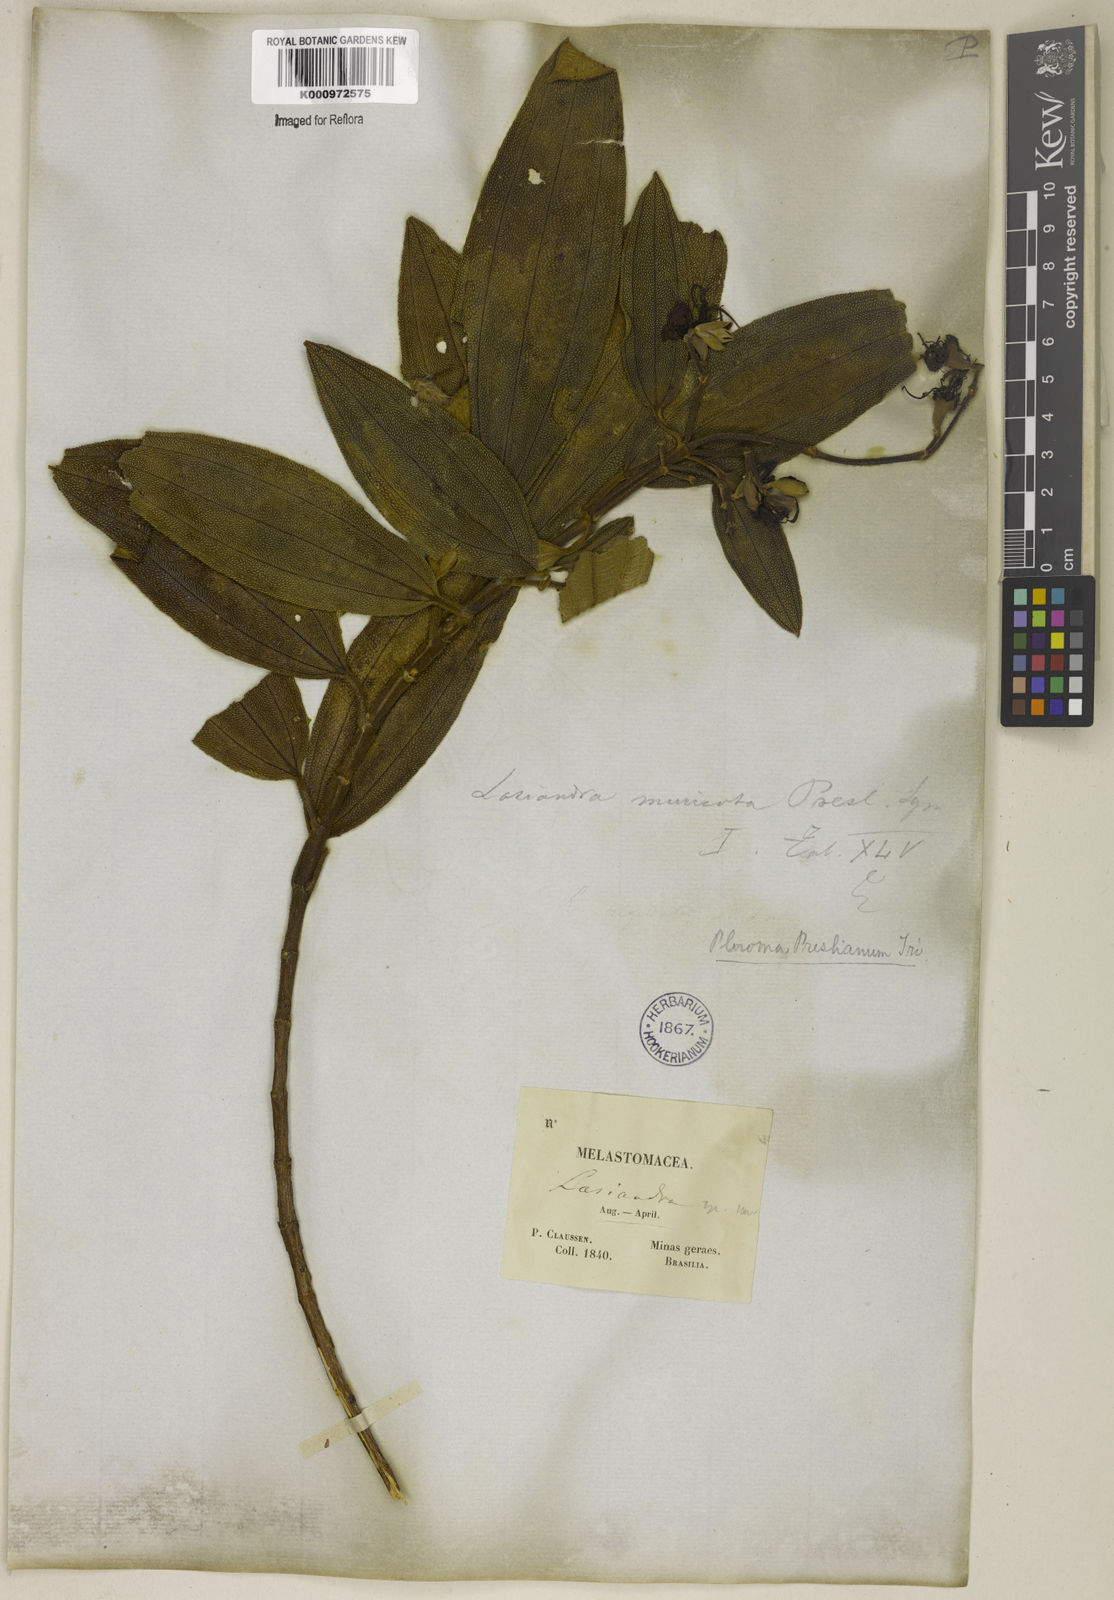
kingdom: Plantae
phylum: Tracheophyta
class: Magnoliopsida
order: Myrtales
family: Melastomataceae
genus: Pleroma
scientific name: Pleroma estrellense
